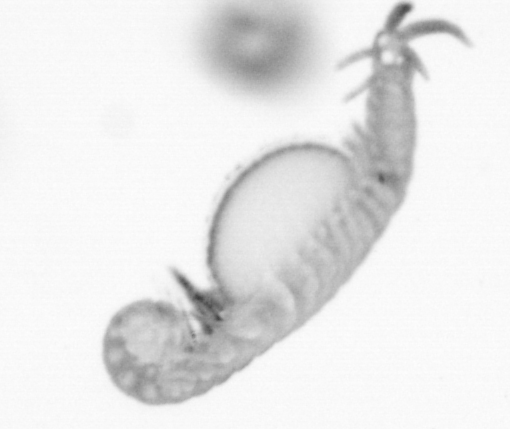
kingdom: Animalia
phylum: Annelida
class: Polychaeta
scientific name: Polychaeta
